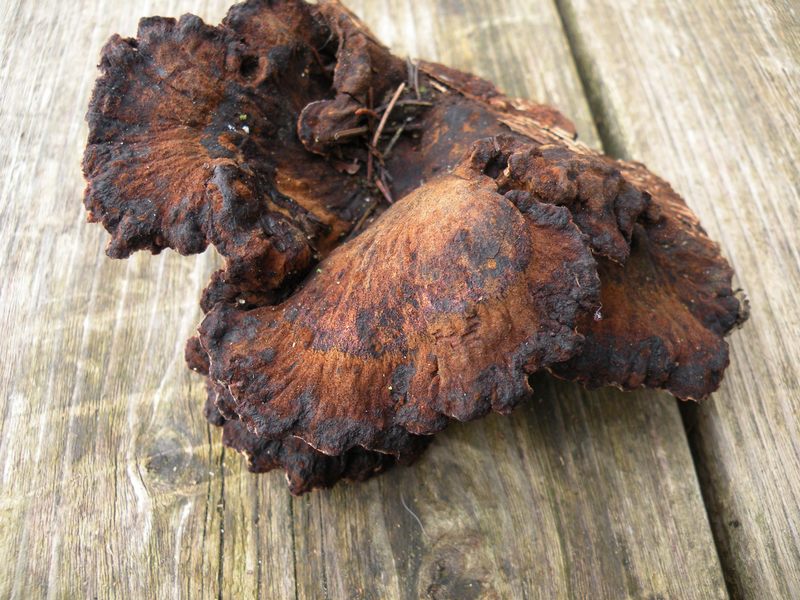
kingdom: Fungi
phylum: Basidiomycota
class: Agaricomycetes
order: Polyporales
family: Ischnodermataceae
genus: Ischnoderma
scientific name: Ischnoderma benzoinum
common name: gran-tjæreporesvamp
